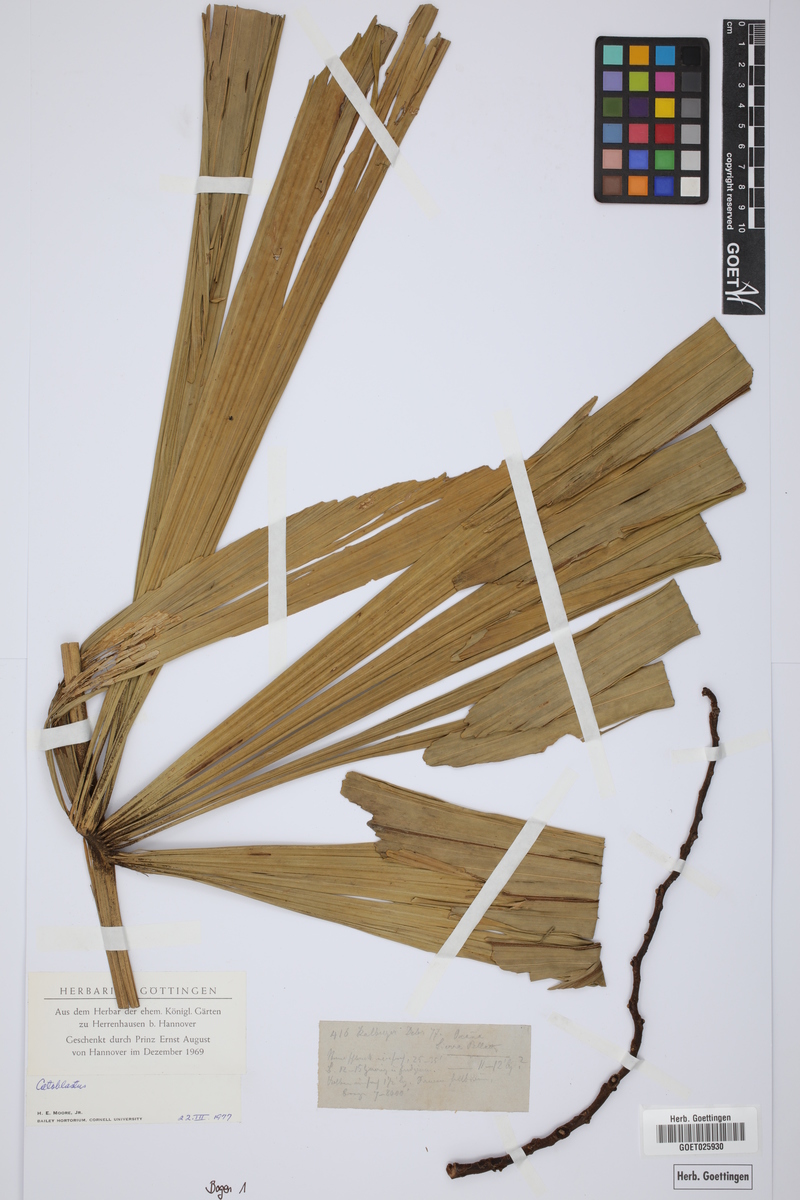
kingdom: Plantae
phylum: Tracheophyta
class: Liliopsida
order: Arecales
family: Arecaceae
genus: Wettinia
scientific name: Wettinia
